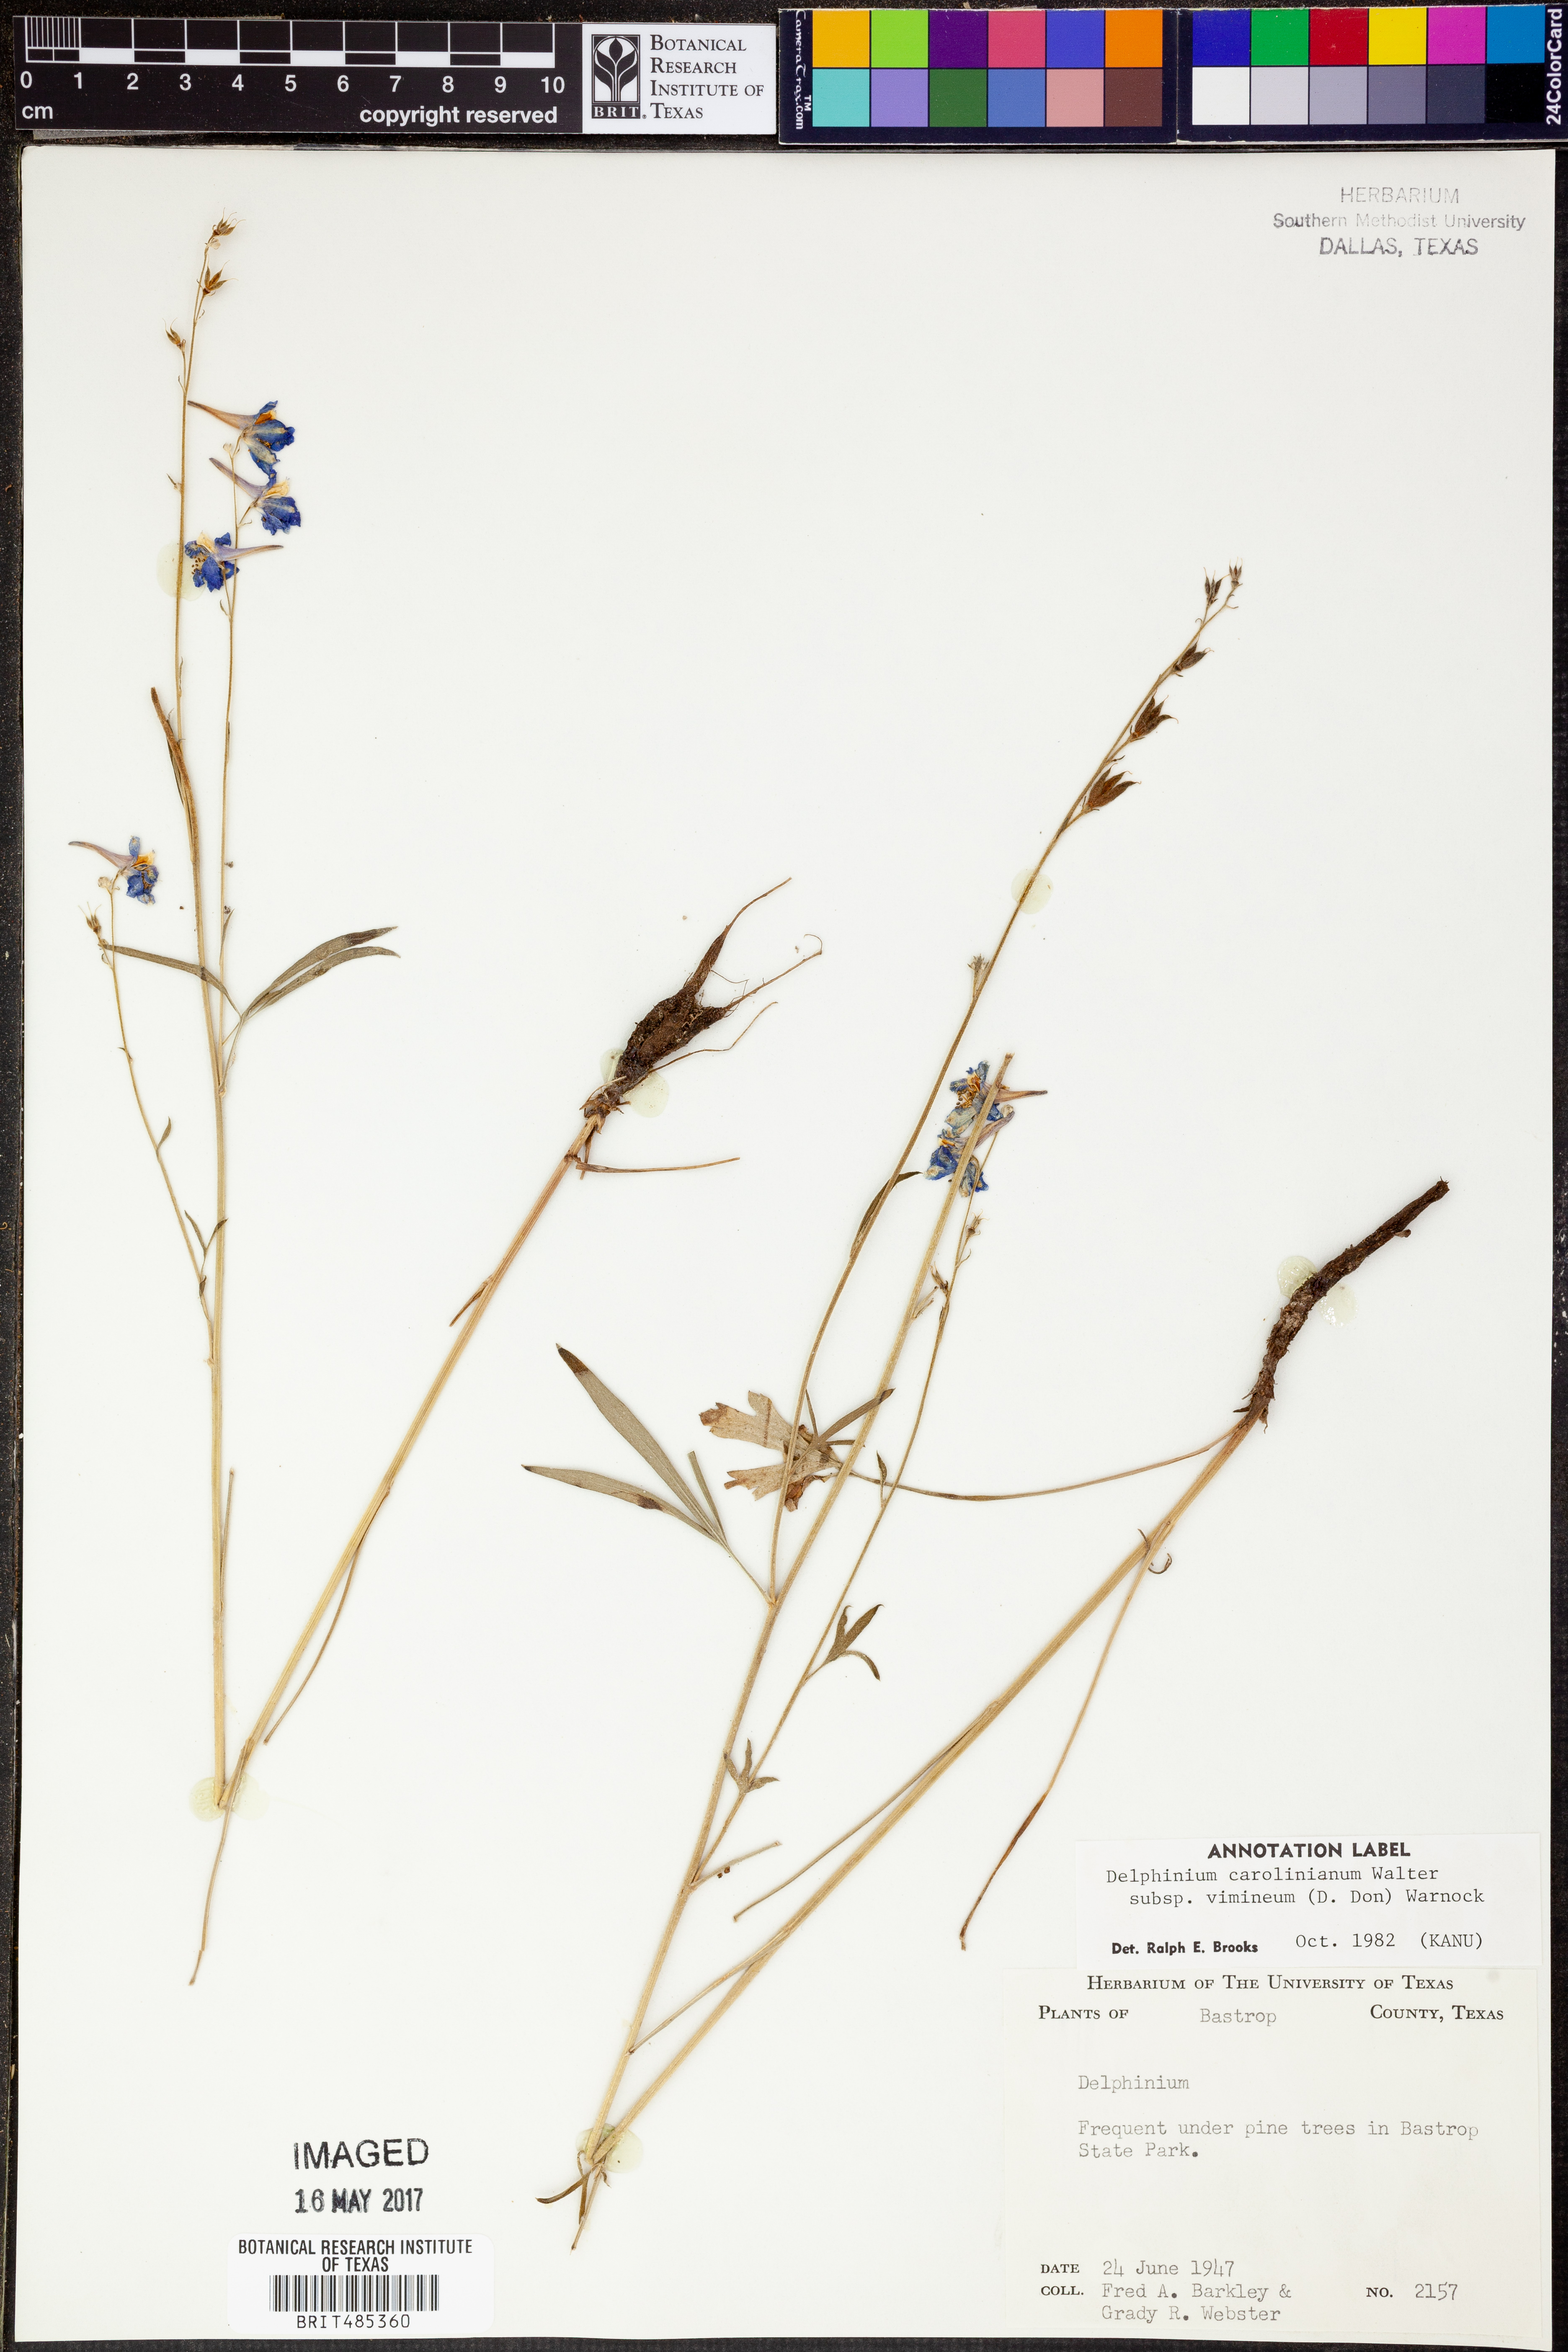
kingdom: Plantae
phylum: Tracheophyta
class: Magnoliopsida
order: Ranunculales
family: Ranunculaceae
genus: Delphinium
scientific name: Delphinium carolinianum
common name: Carolina larkspur
